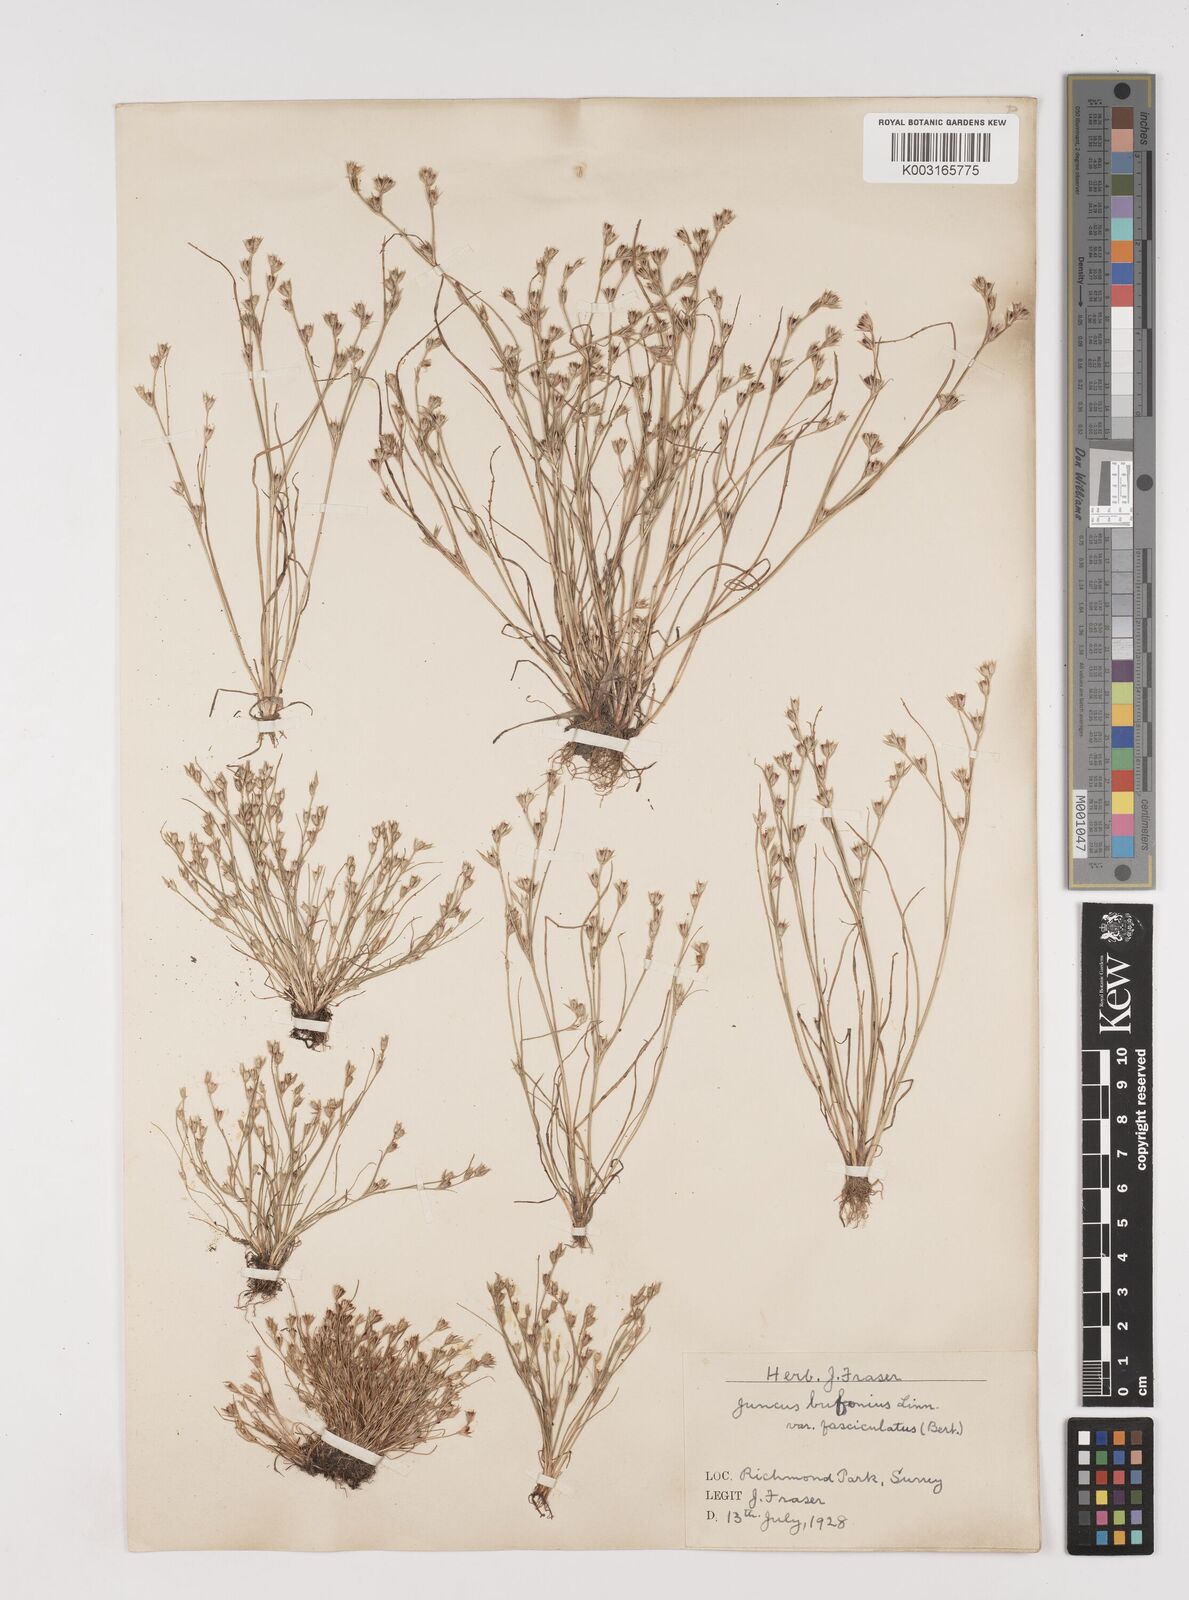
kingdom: Plantae
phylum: Tracheophyta
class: Liliopsida
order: Poales
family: Juncaceae
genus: Juncus
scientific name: Juncus bufonius
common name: Toad rush
